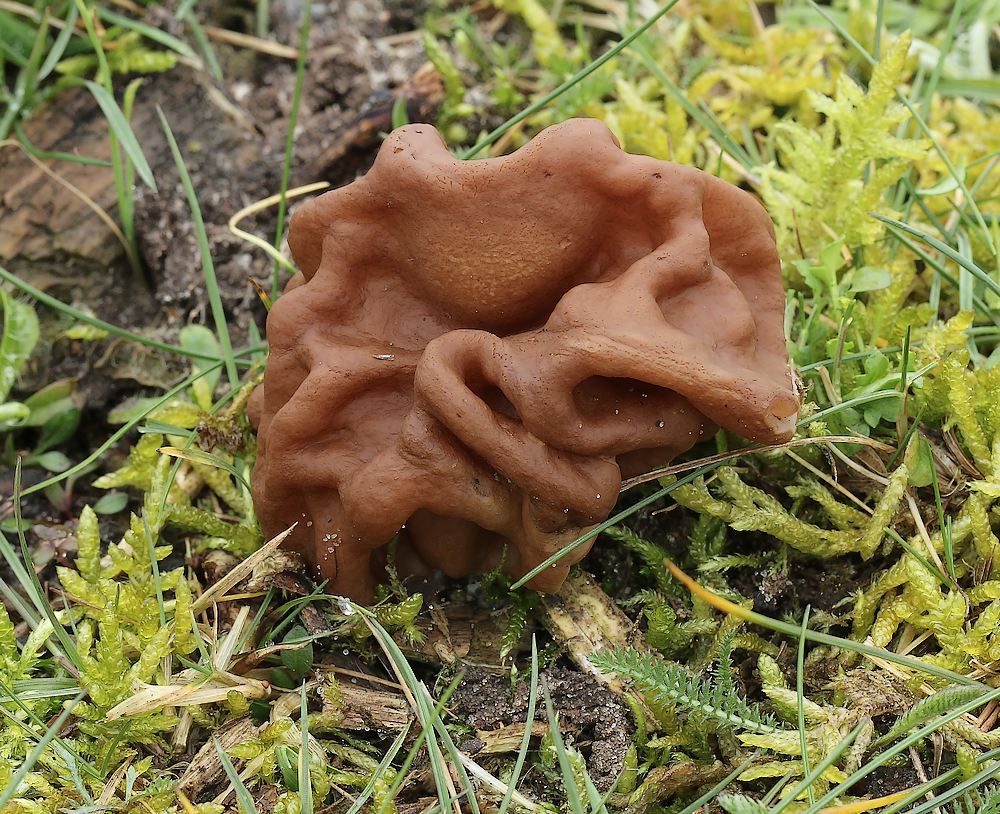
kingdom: Fungi
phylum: Ascomycota
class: Pezizomycetes
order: Pezizales
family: Discinaceae
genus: Gyromitra
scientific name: Gyromitra esculenta
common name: ægte stenmorkel
